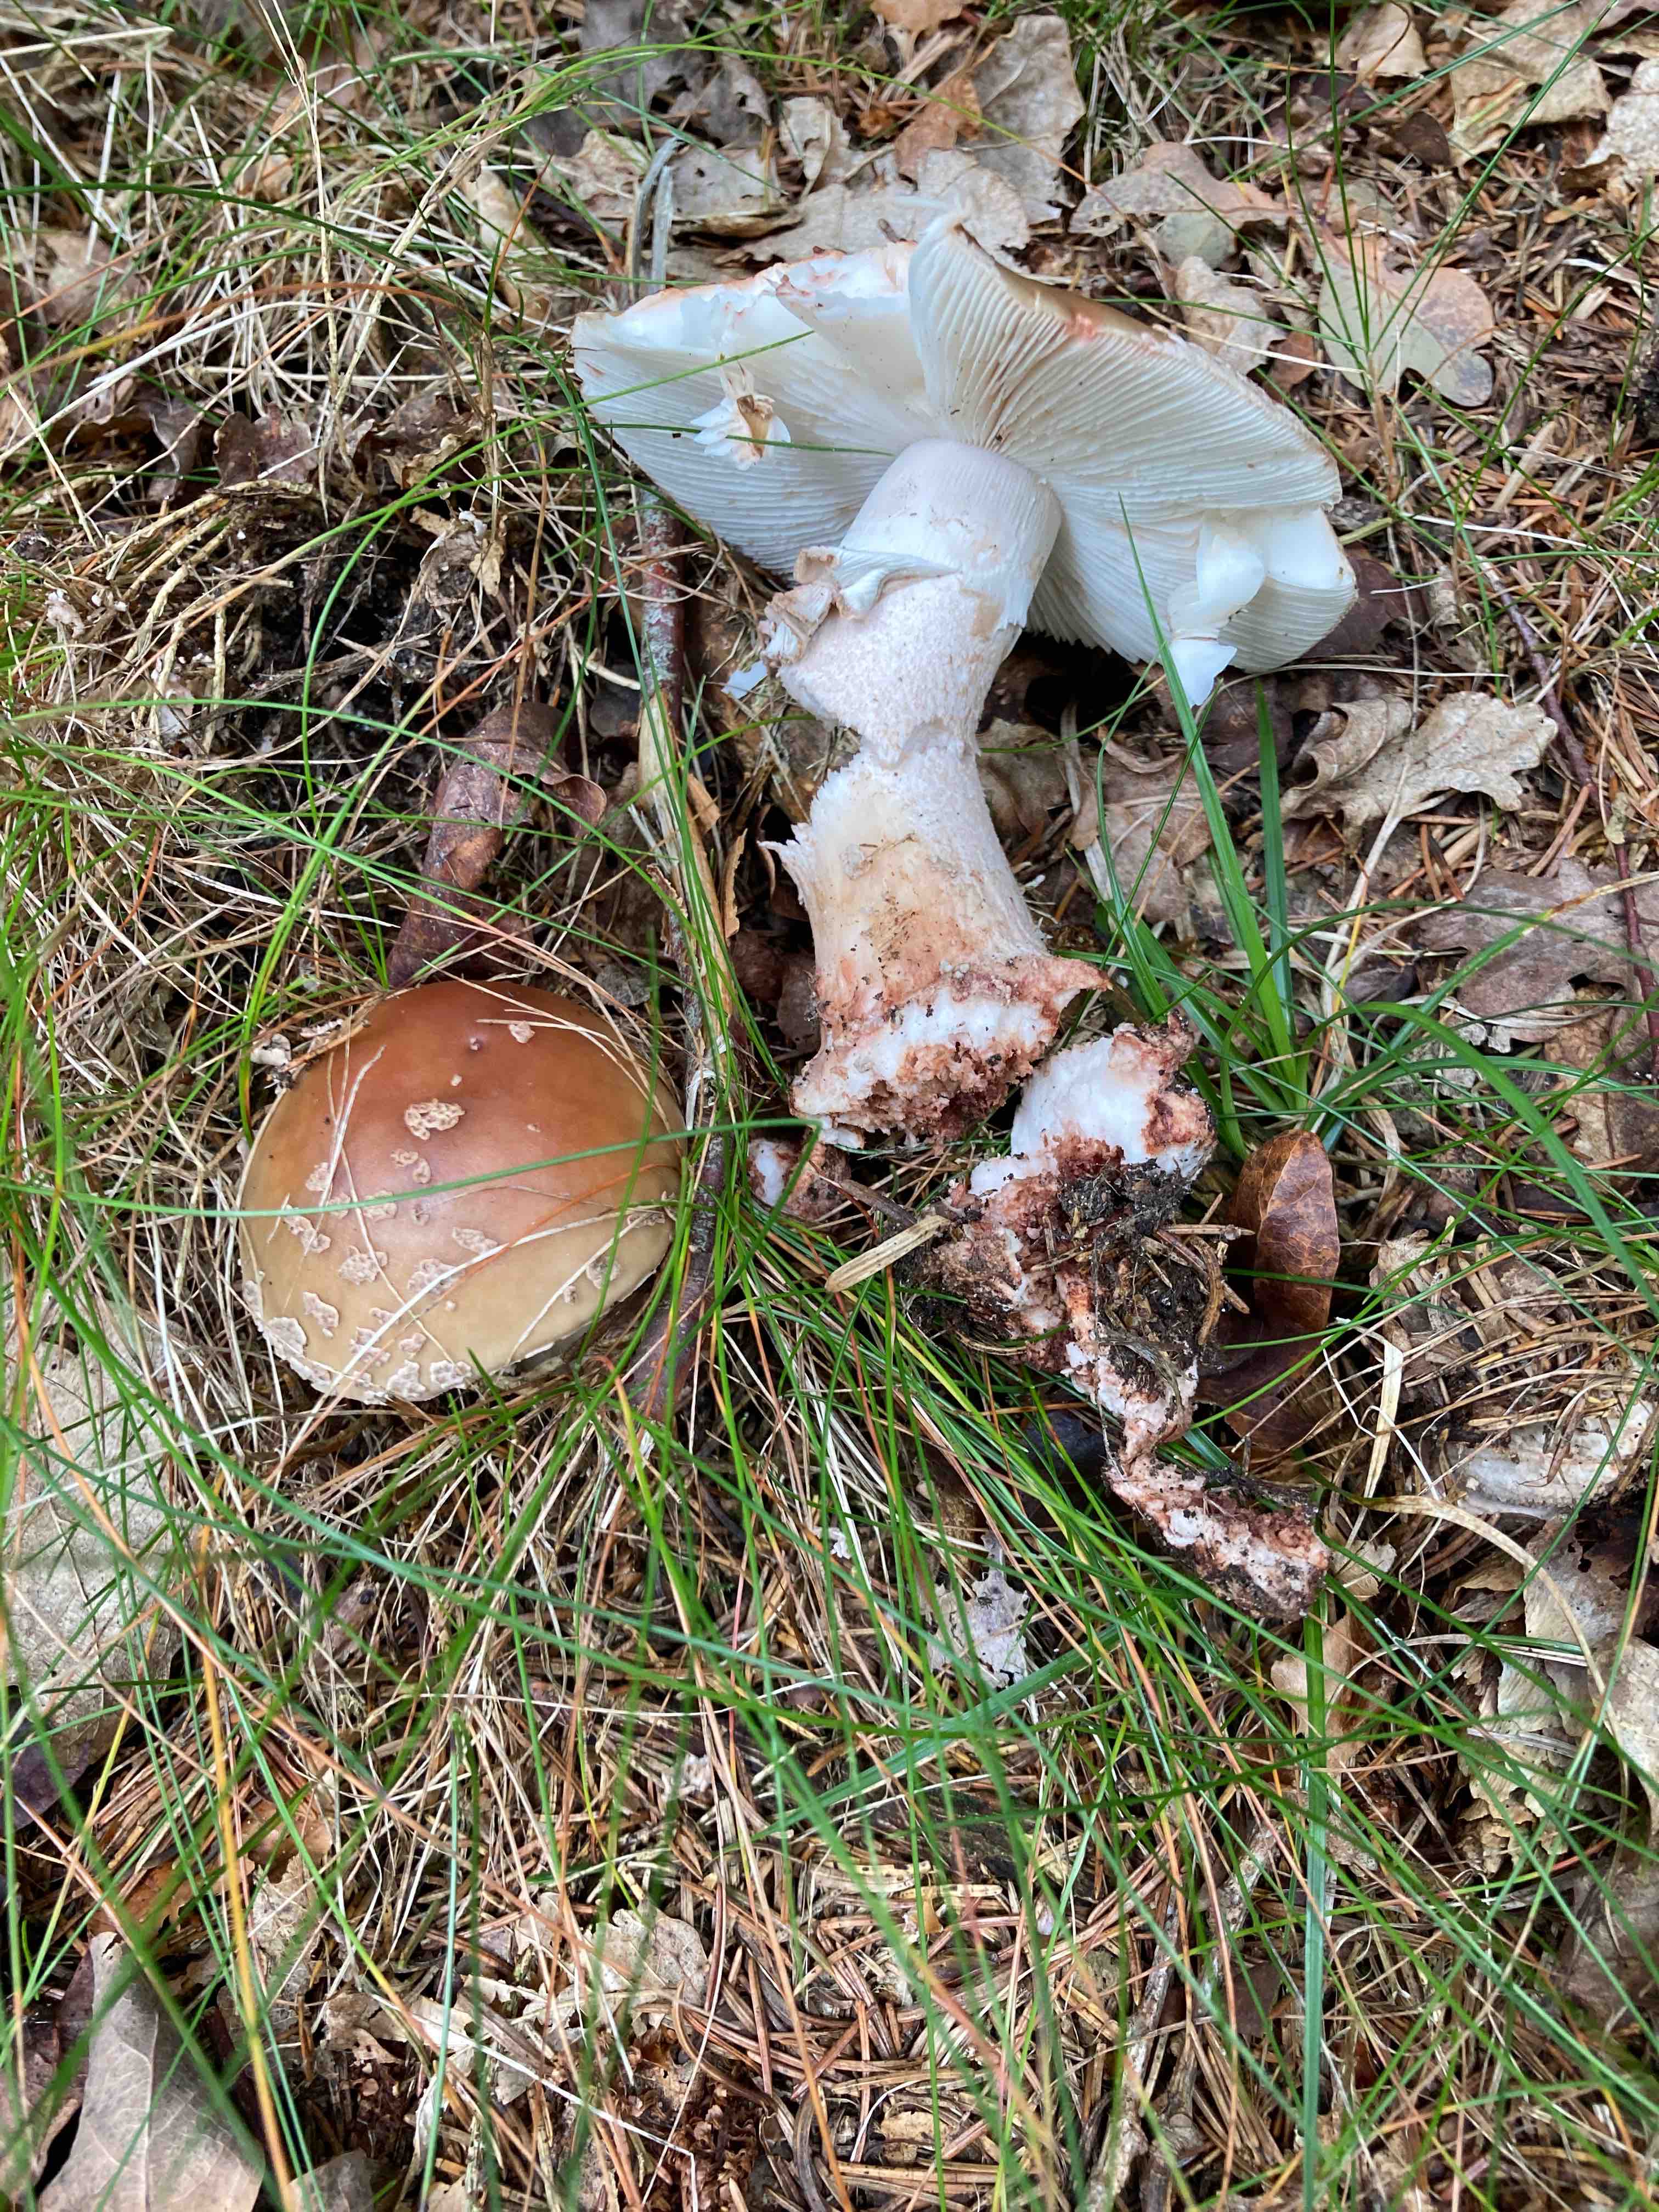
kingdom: Fungi
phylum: Basidiomycota
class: Agaricomycetes
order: Agaricales
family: Amanitaceae
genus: Amanita
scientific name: Amanita rubescens
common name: rødmende fluesvamp
